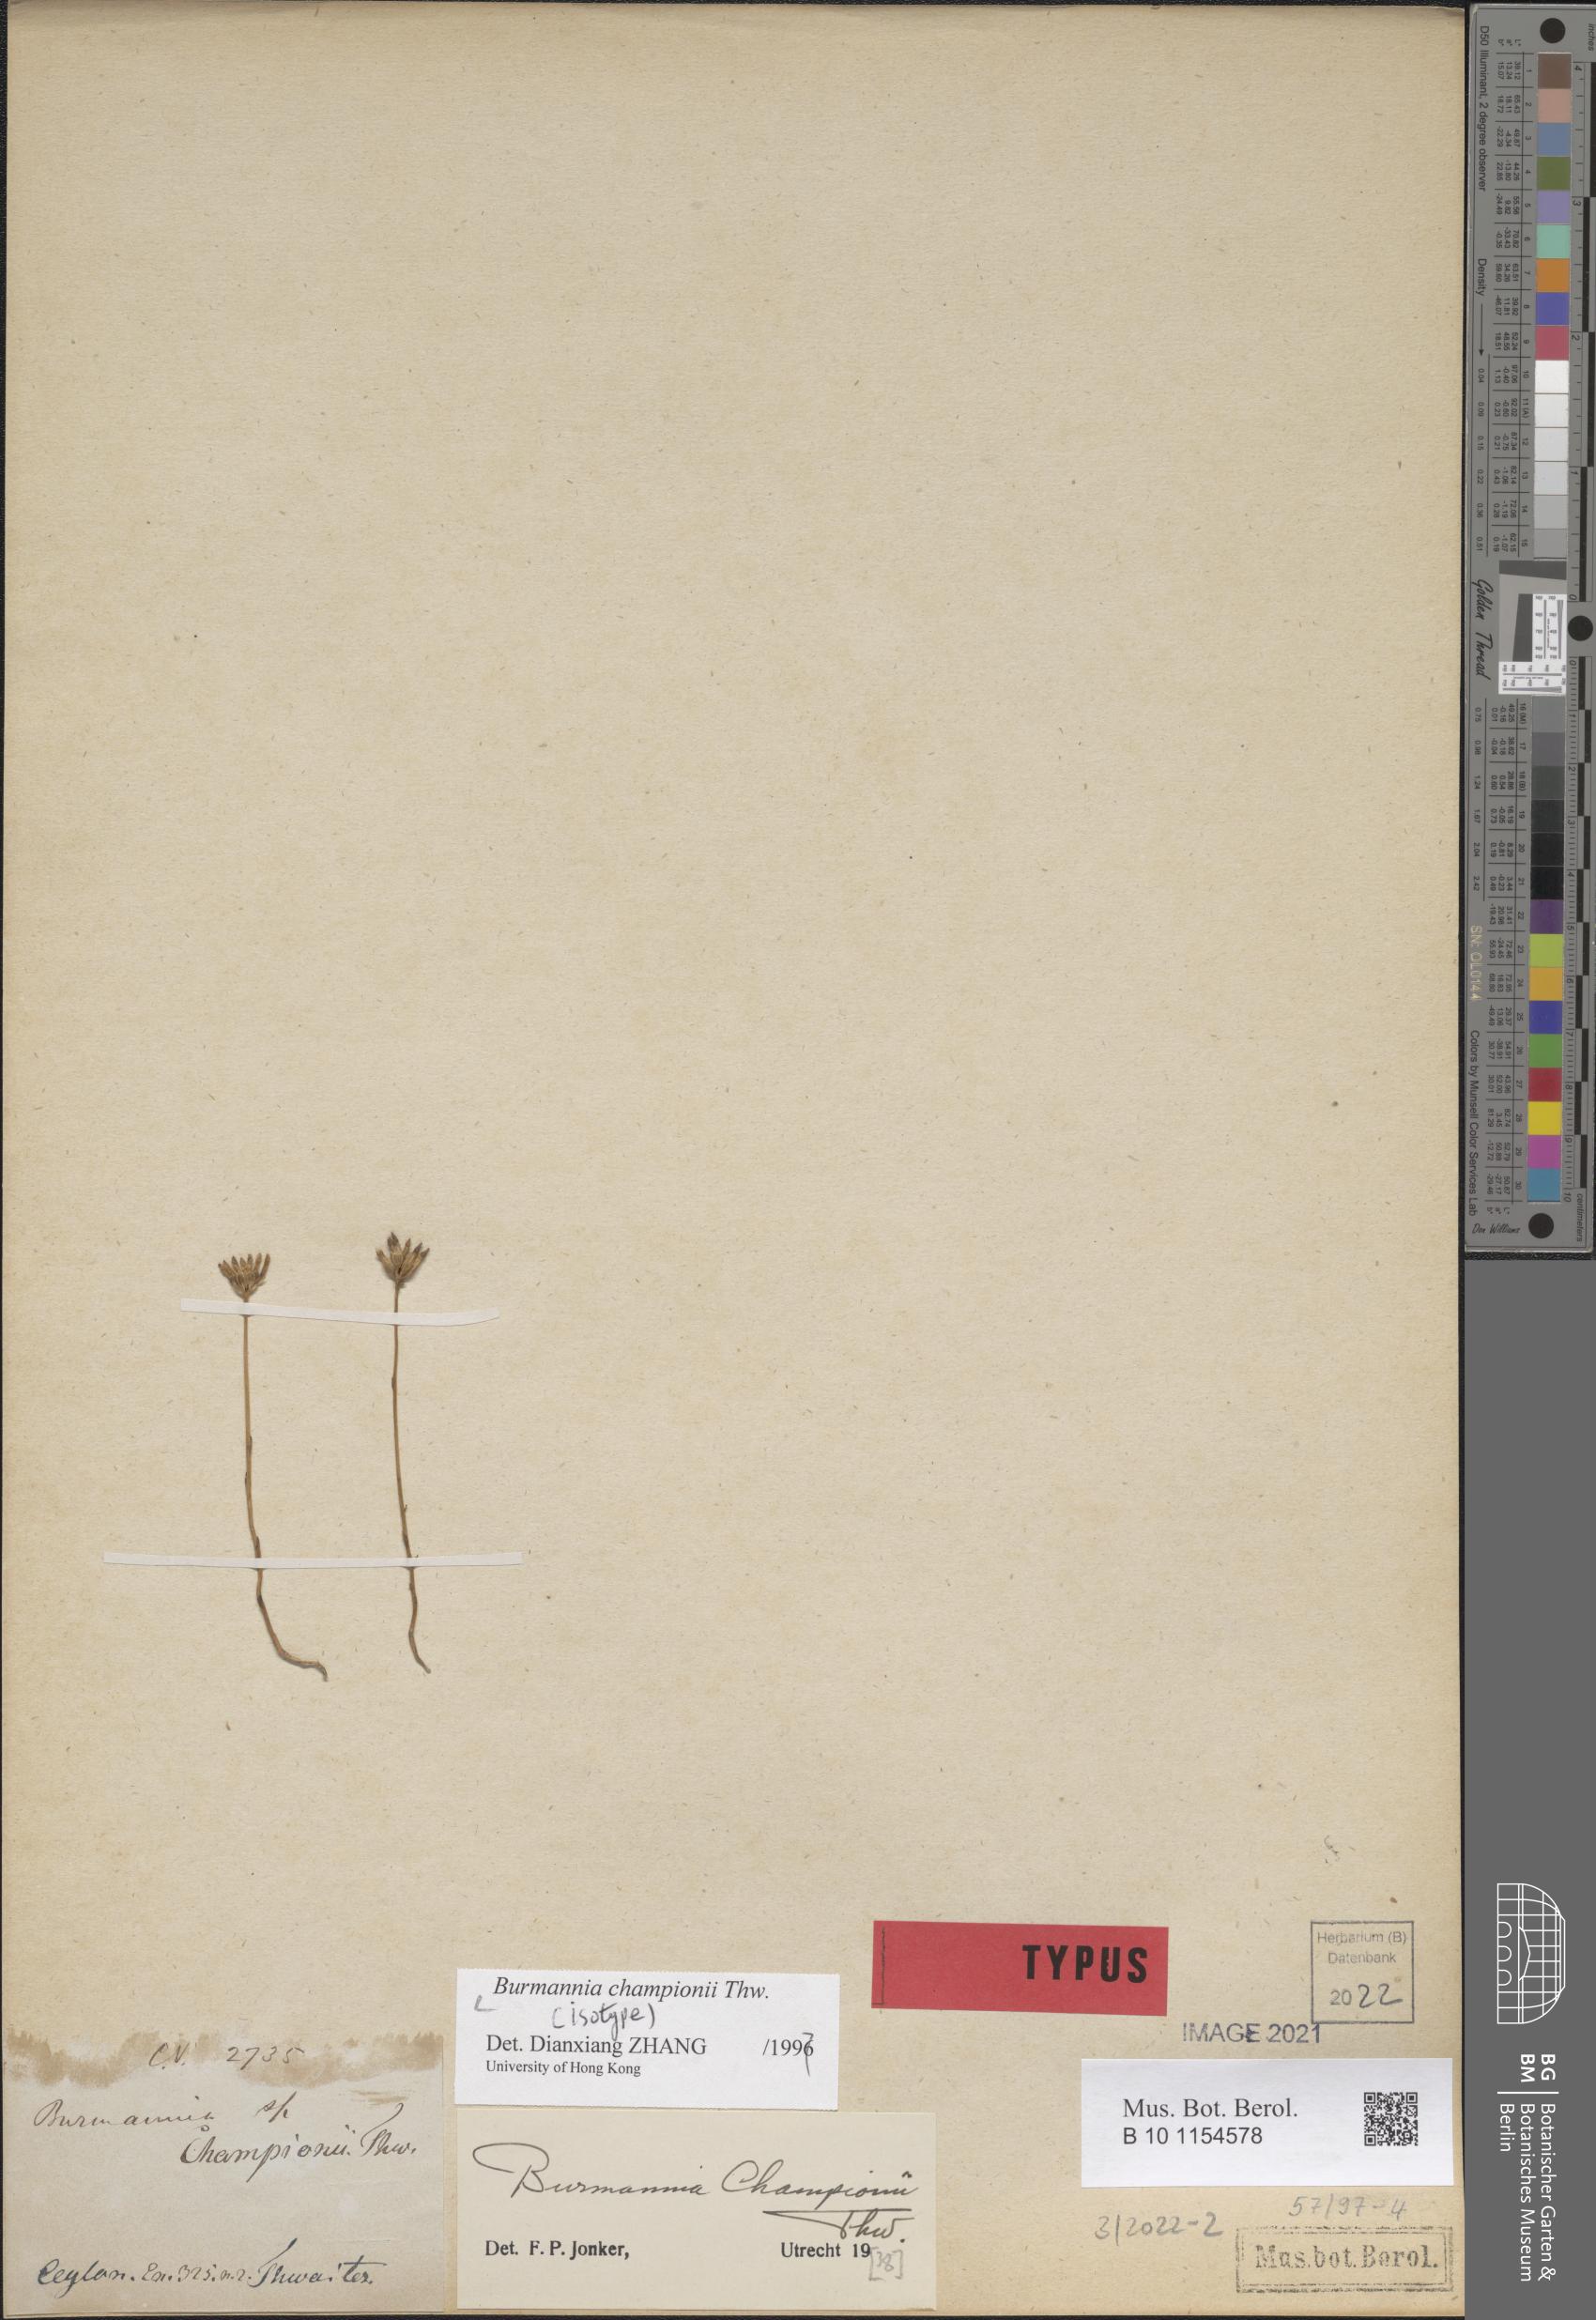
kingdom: Plantae
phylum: Tracheophyta
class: Liliopsida
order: Dioscoreales
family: Burmanniaceae
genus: Burmannia
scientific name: Burmannia championii
